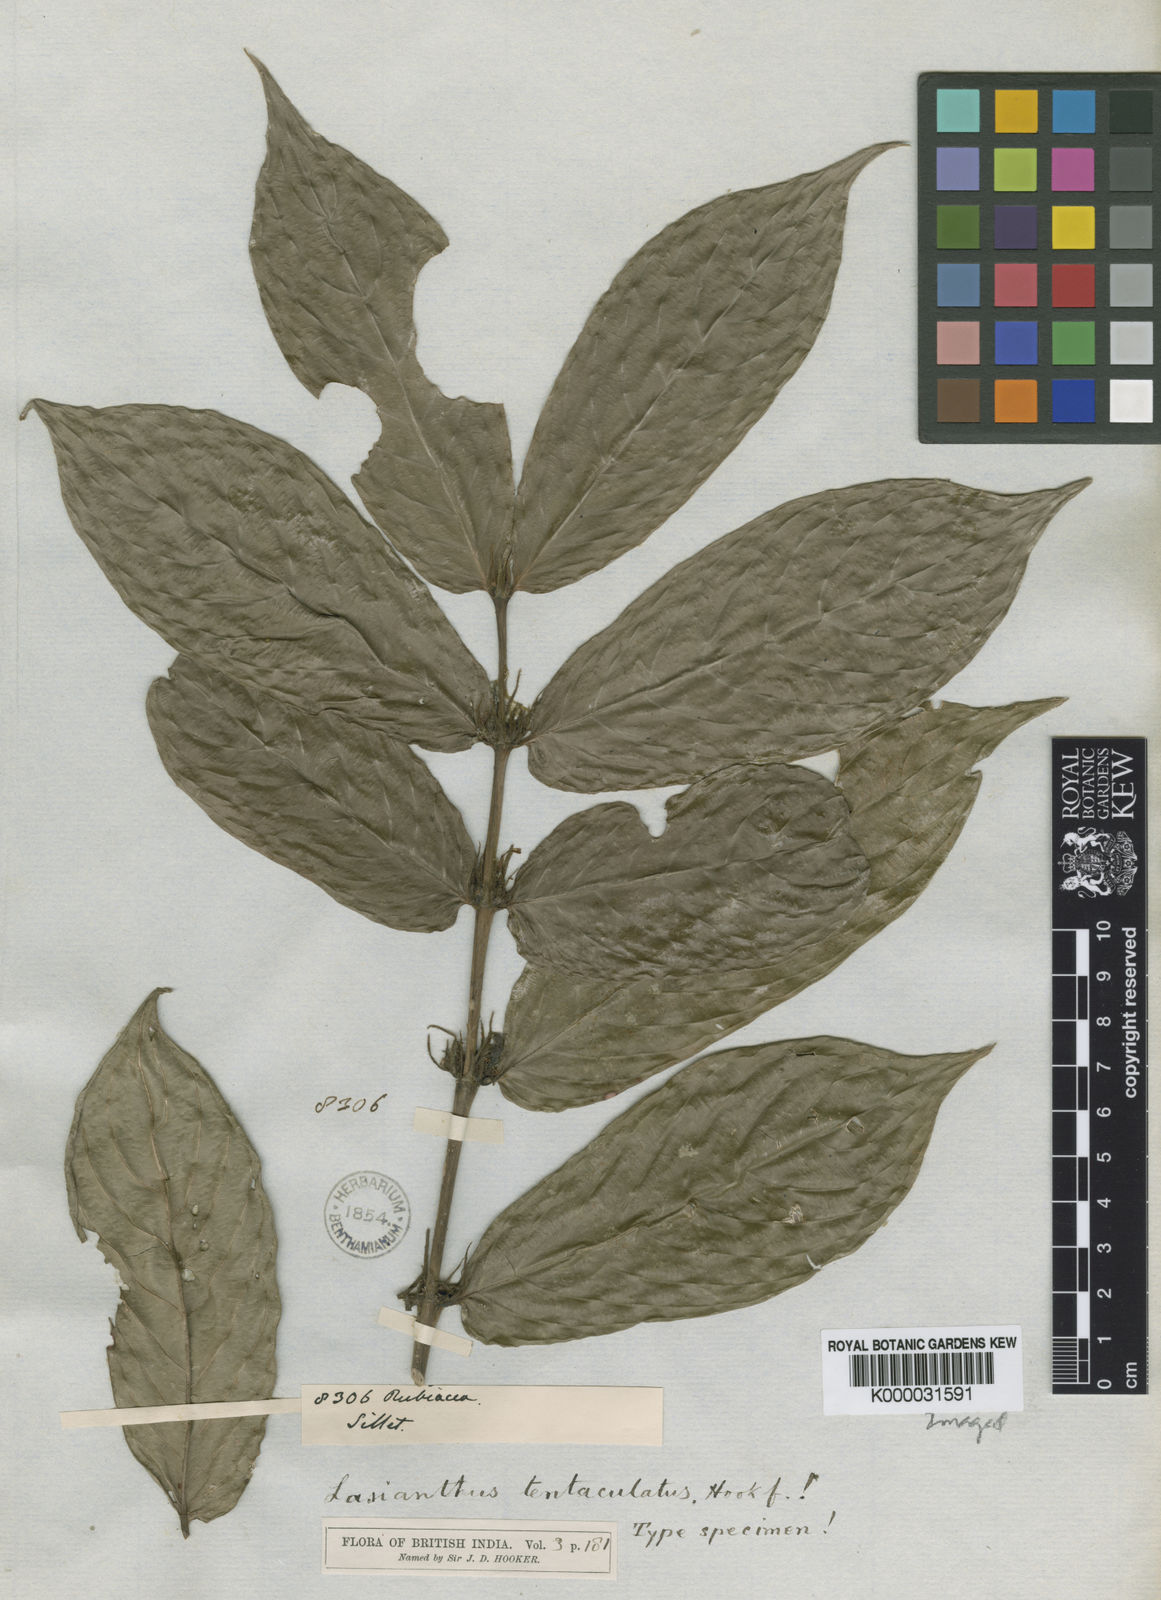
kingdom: Plantae
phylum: Tracheophyta
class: Magnoliopsida
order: Gentianales
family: Rubiaceae
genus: Lasianthus
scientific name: Lasianthus rigidus
